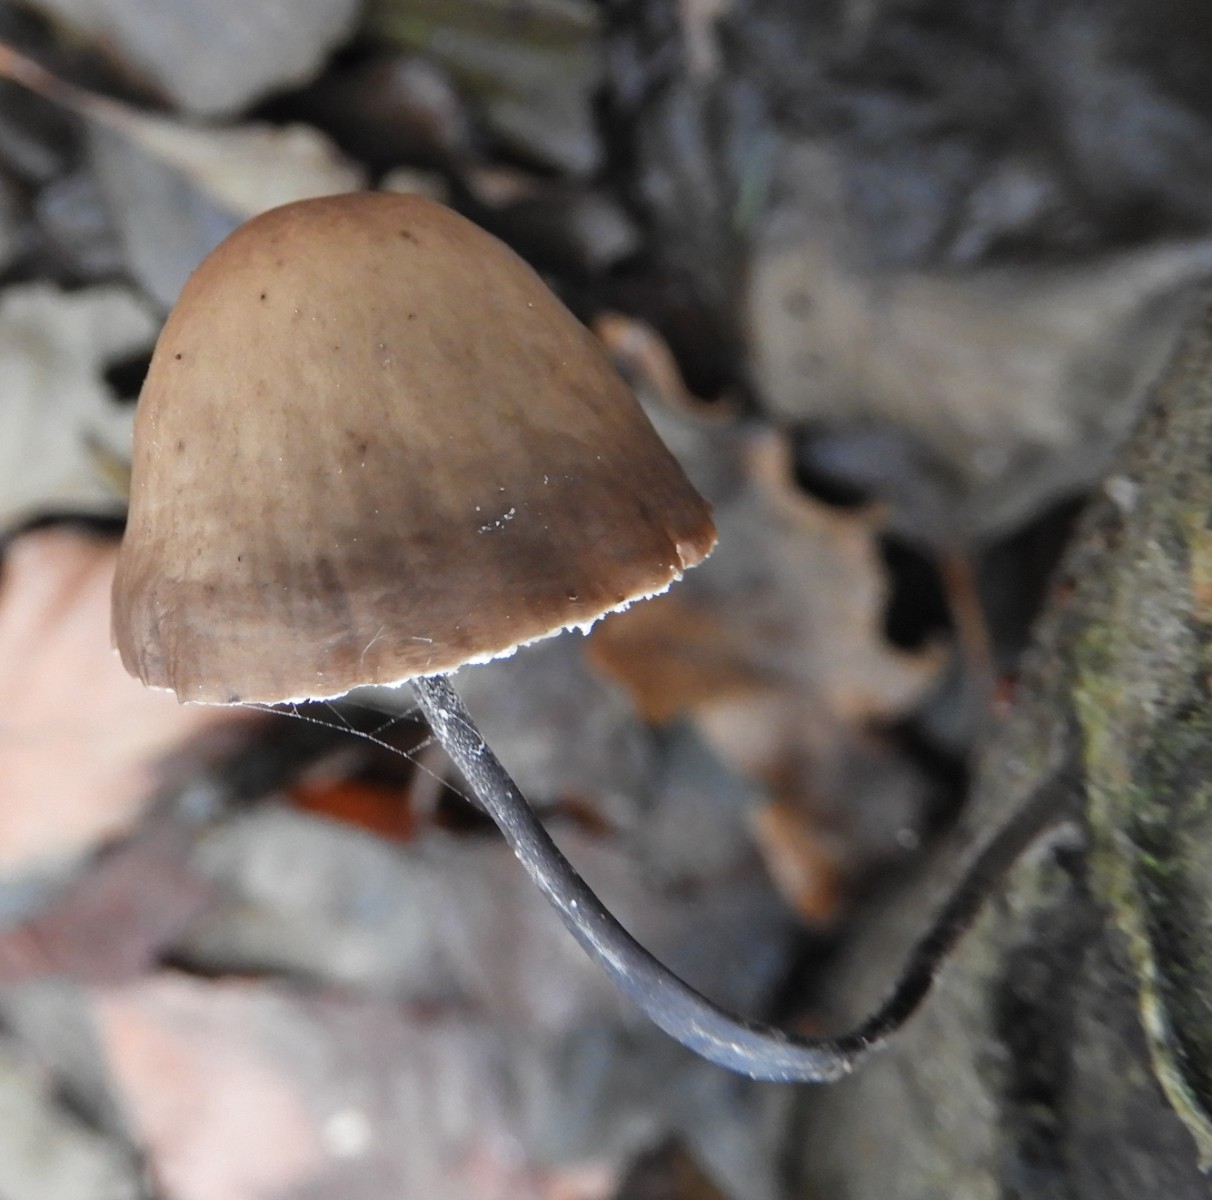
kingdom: Fungi
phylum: Basidiomycota
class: Agaricomycetes
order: Agaricales
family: Omphalotaceae
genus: Mycetinis
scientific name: Mycetinis alliaceus
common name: stor løghat
